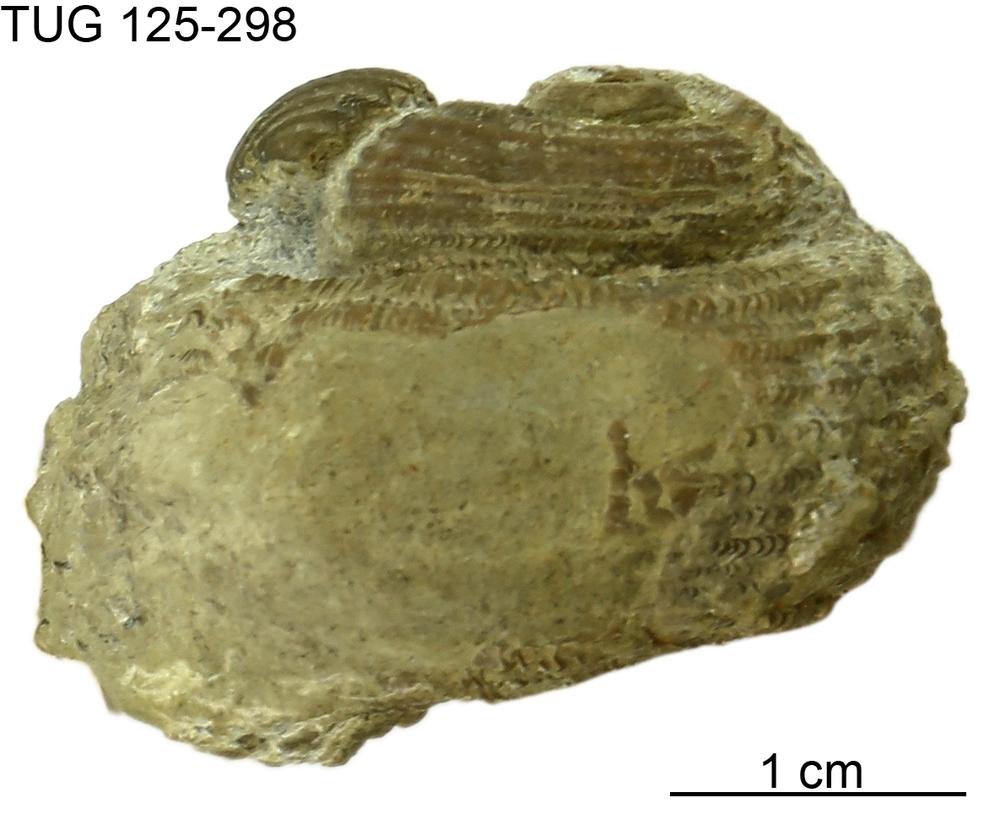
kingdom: Animalia
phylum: Mollusca
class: Gastropoda
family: Euomphalidae
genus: Poleumita
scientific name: Poleumita Euomphalus discors
